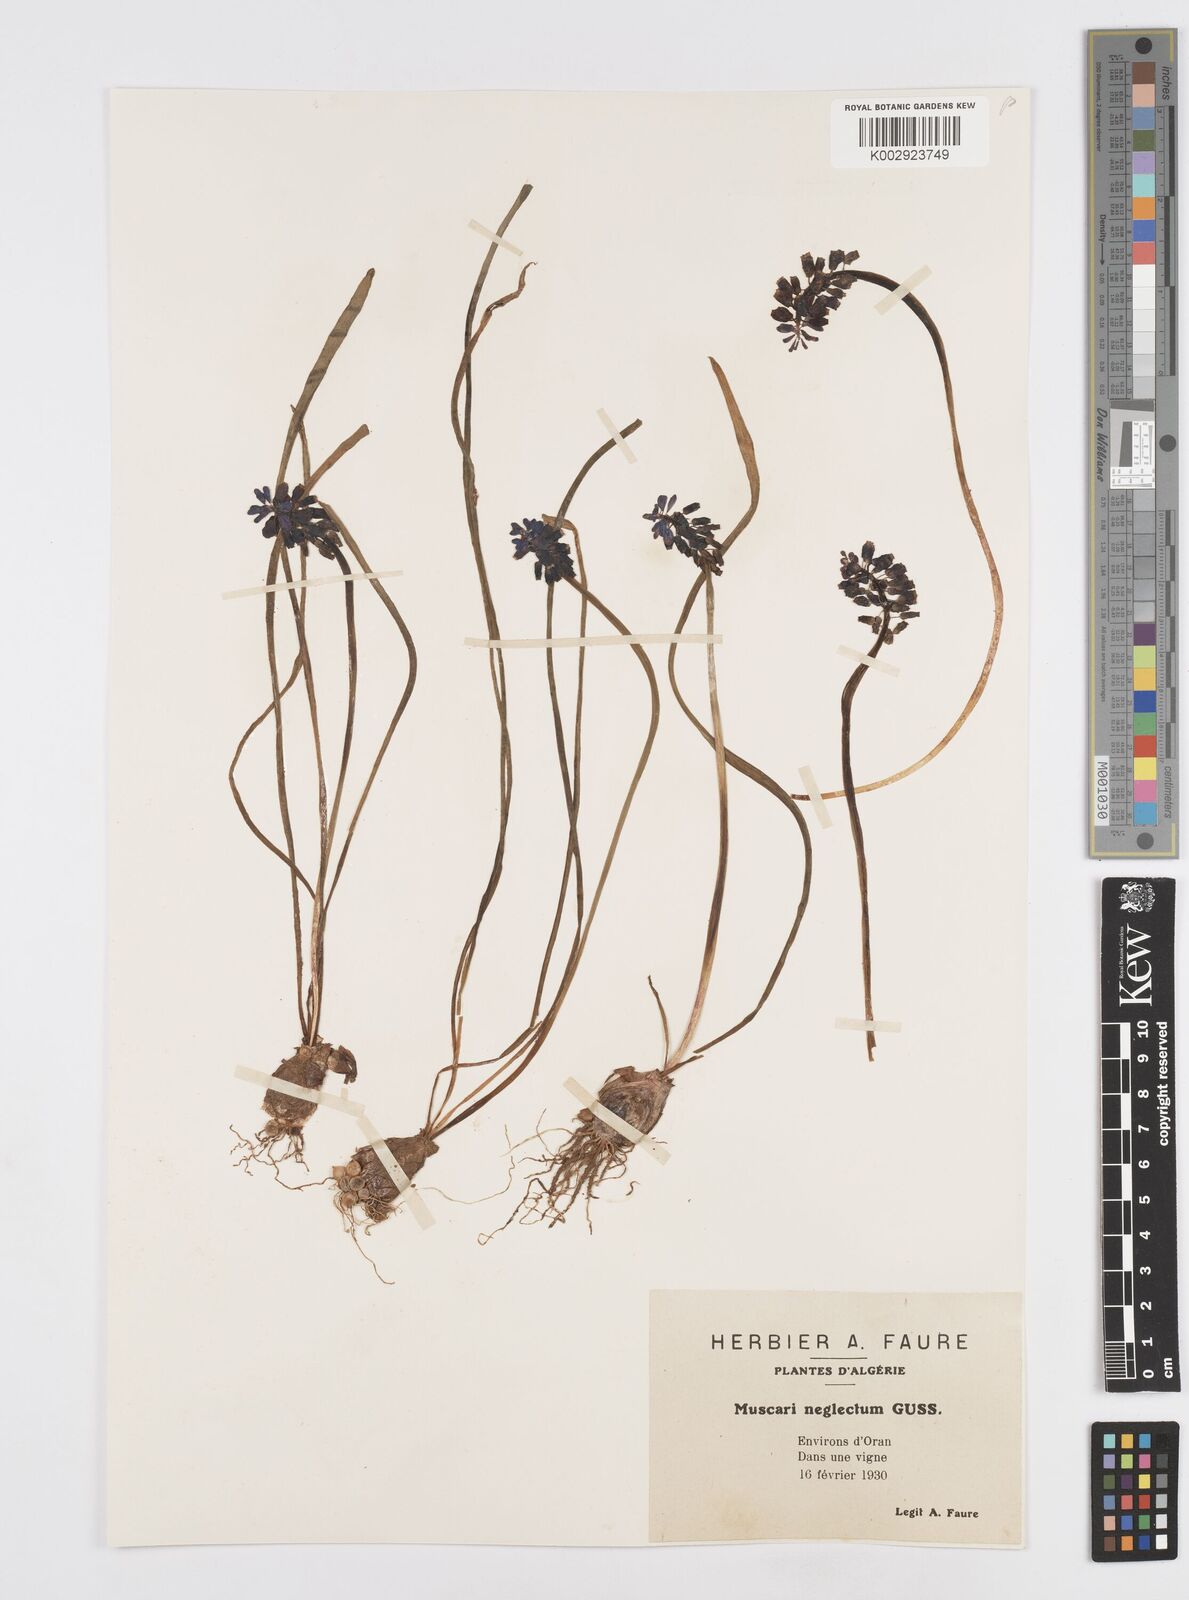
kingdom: Plantae
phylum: Tracheophyta
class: Liliopsida
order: Asparagales
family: Asparagaceae
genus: Muscari
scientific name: Muscari neglectum
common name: Grape-hyacinth
